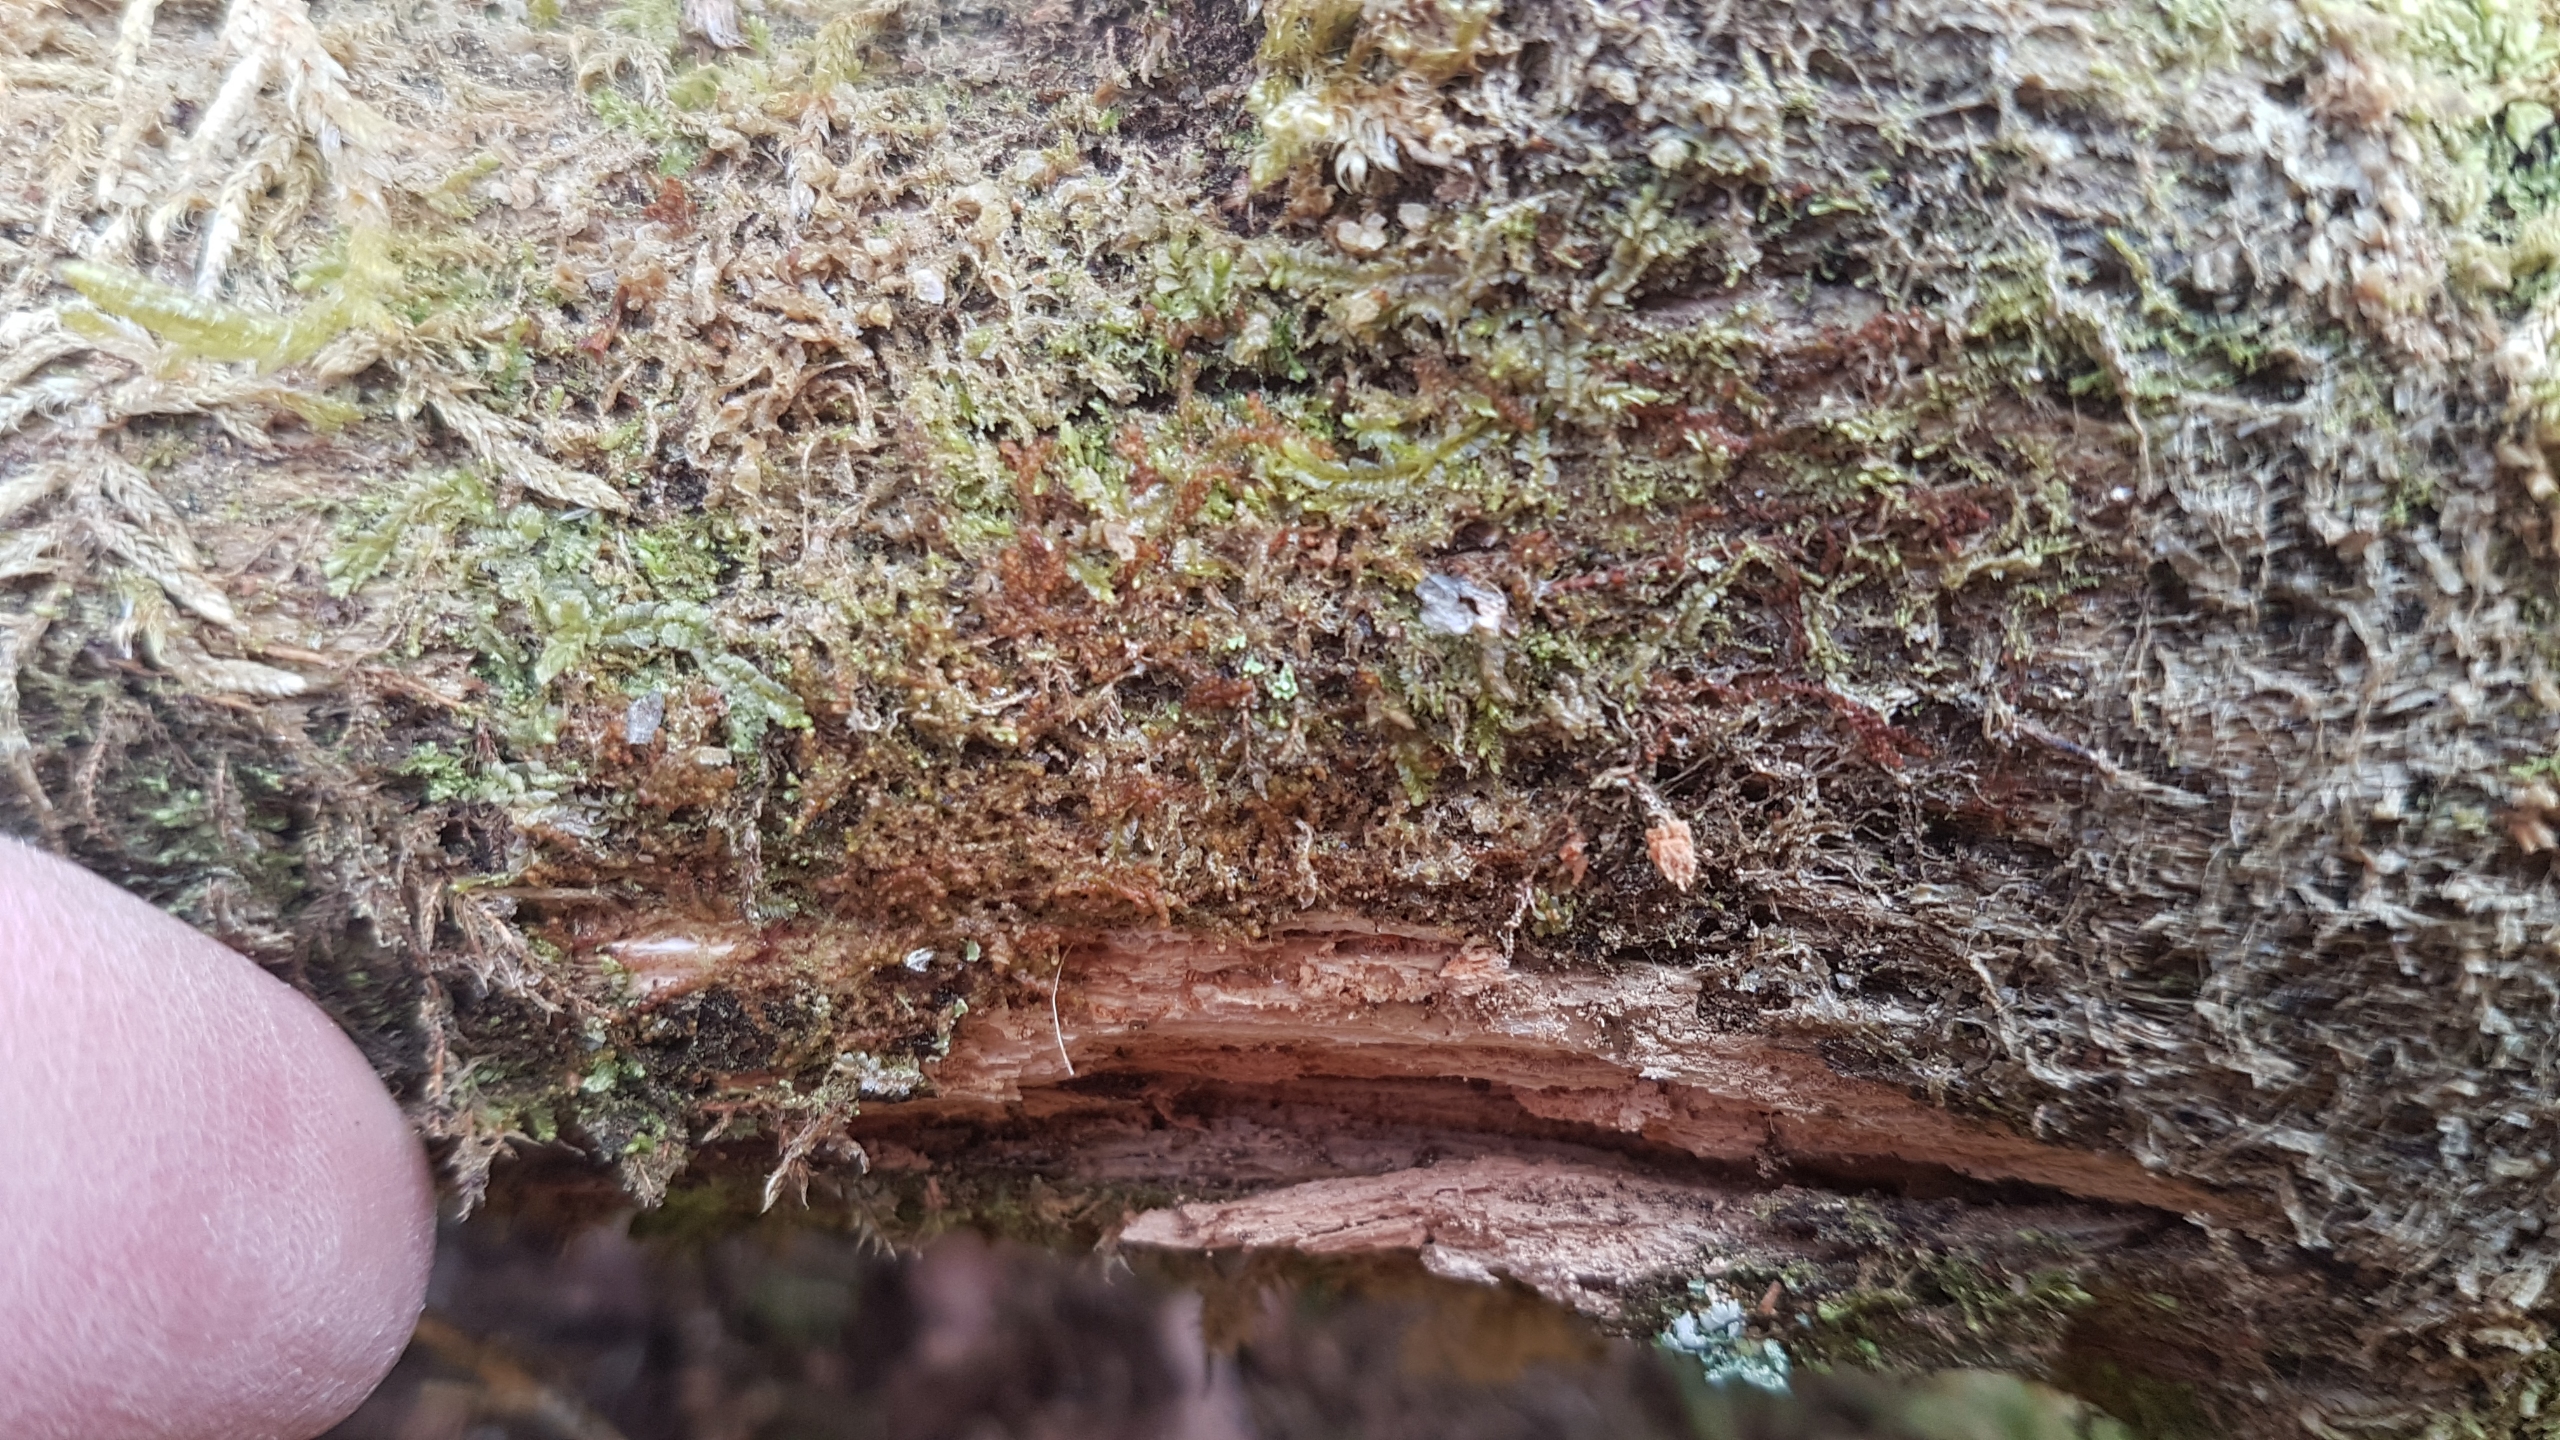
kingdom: Plantae
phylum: Marchantiophyta
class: Jungermanniopsida
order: Jungermanniales
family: Cephaloziaceae
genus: Nowellia
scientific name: Nowellia curvifolia
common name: Krumbladet stødmos
